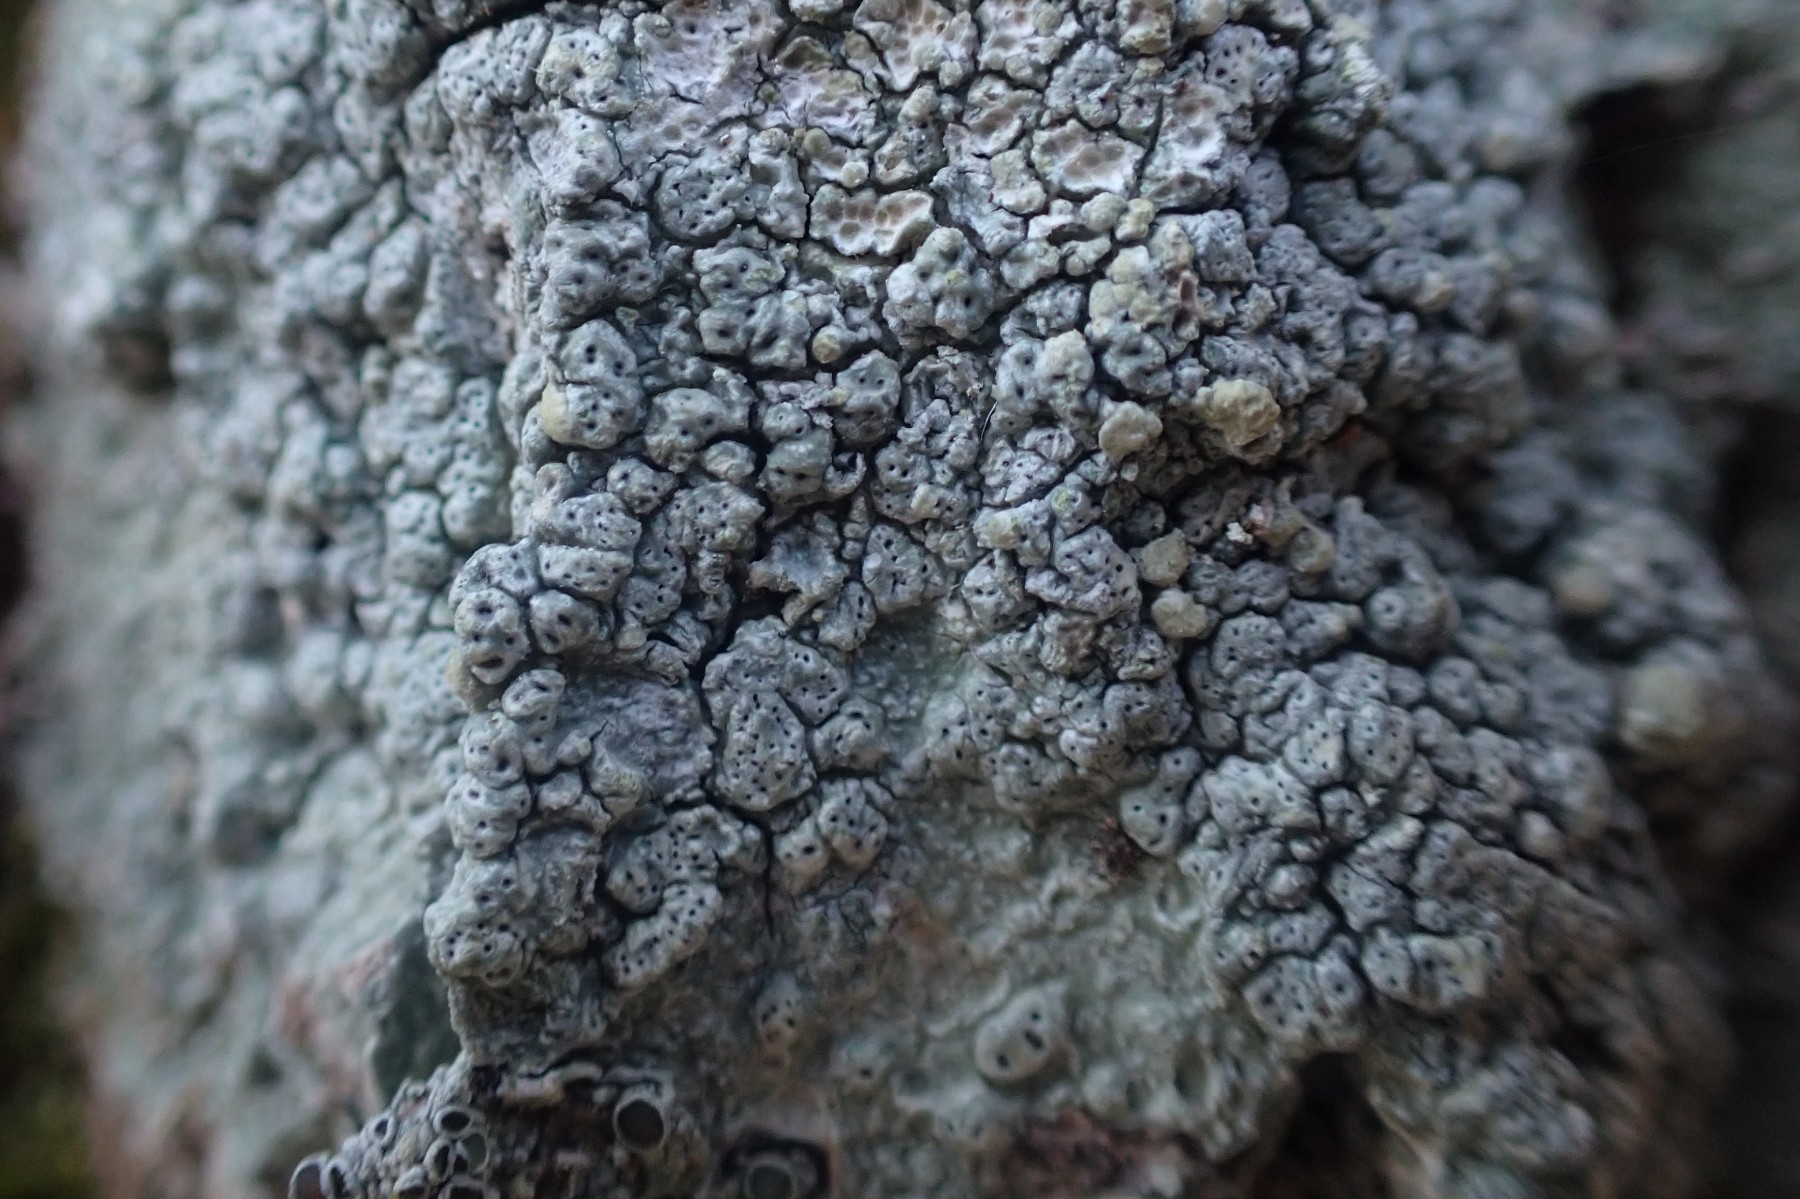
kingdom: Fungi
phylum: Ascomycota
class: Lecanoromycetes
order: Pertusariales
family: Pertusariaceae
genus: Pertusaria
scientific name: Pertusaria pertusa
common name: almindelig prikvortelav
